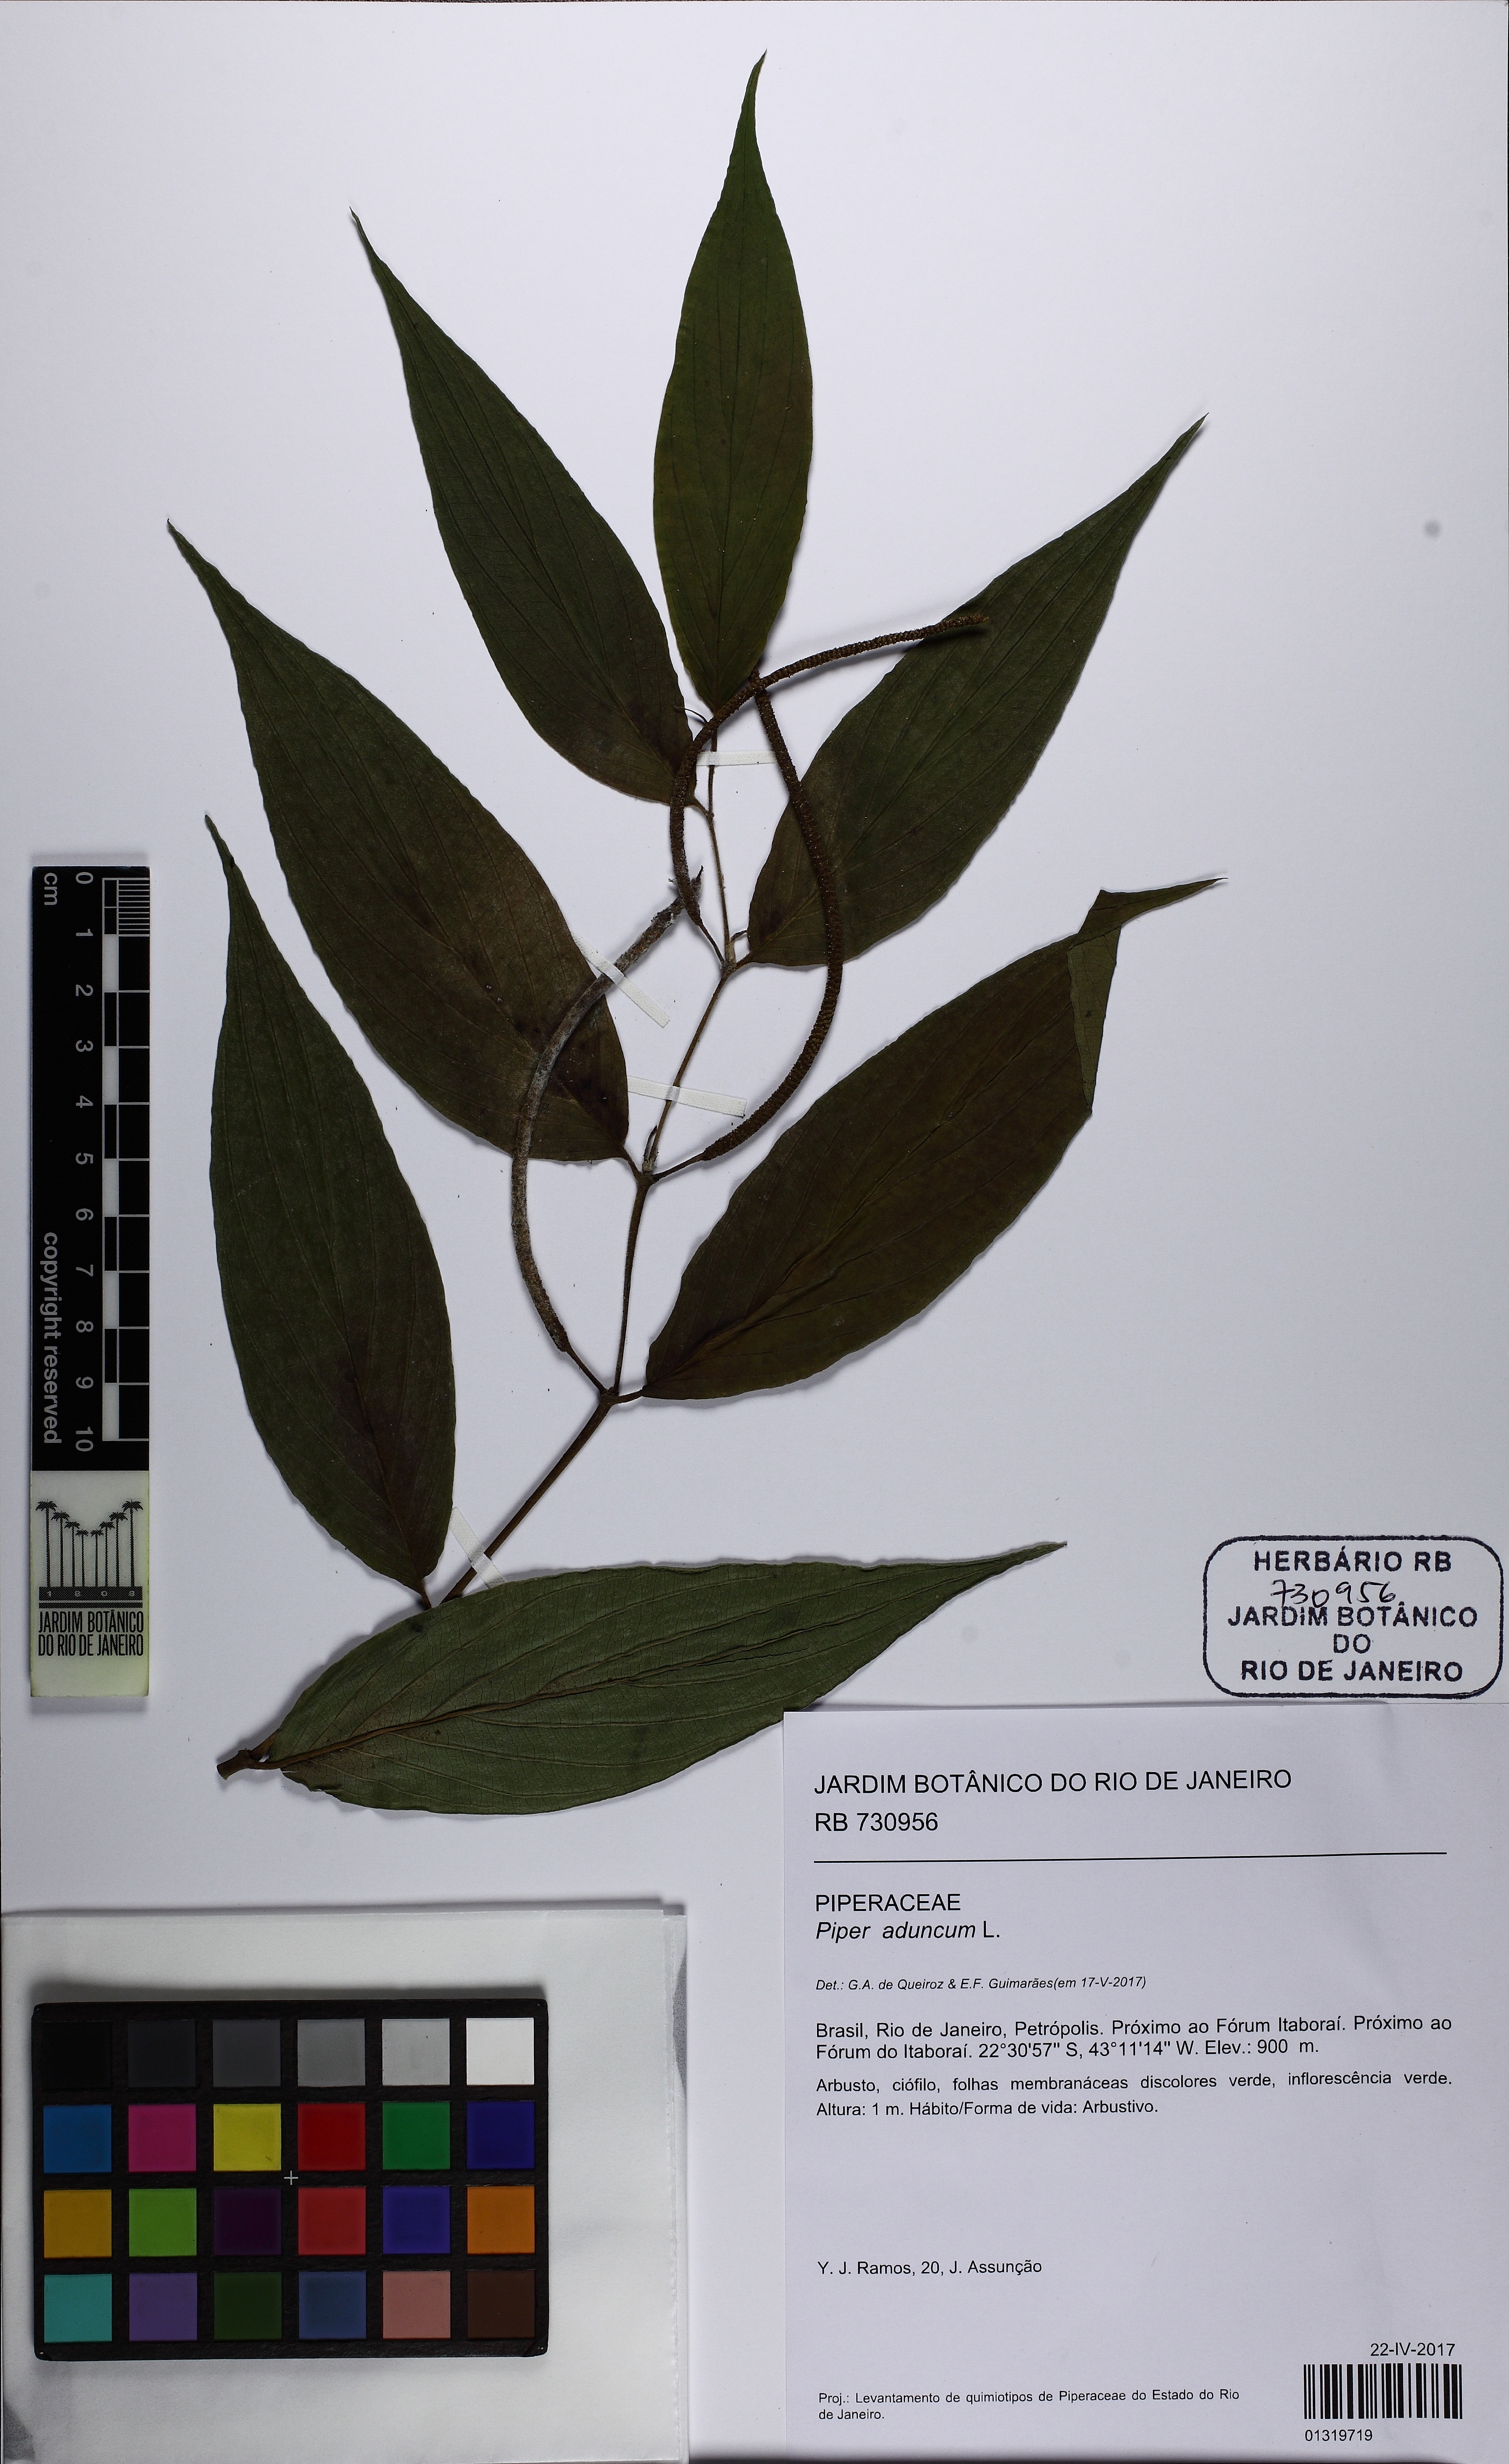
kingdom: Plantae
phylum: Tracheophyta
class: Magnoliopsida
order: Piperales
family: Piperaceae
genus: Piper
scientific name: Piper aduncum
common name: Spiked pepper
